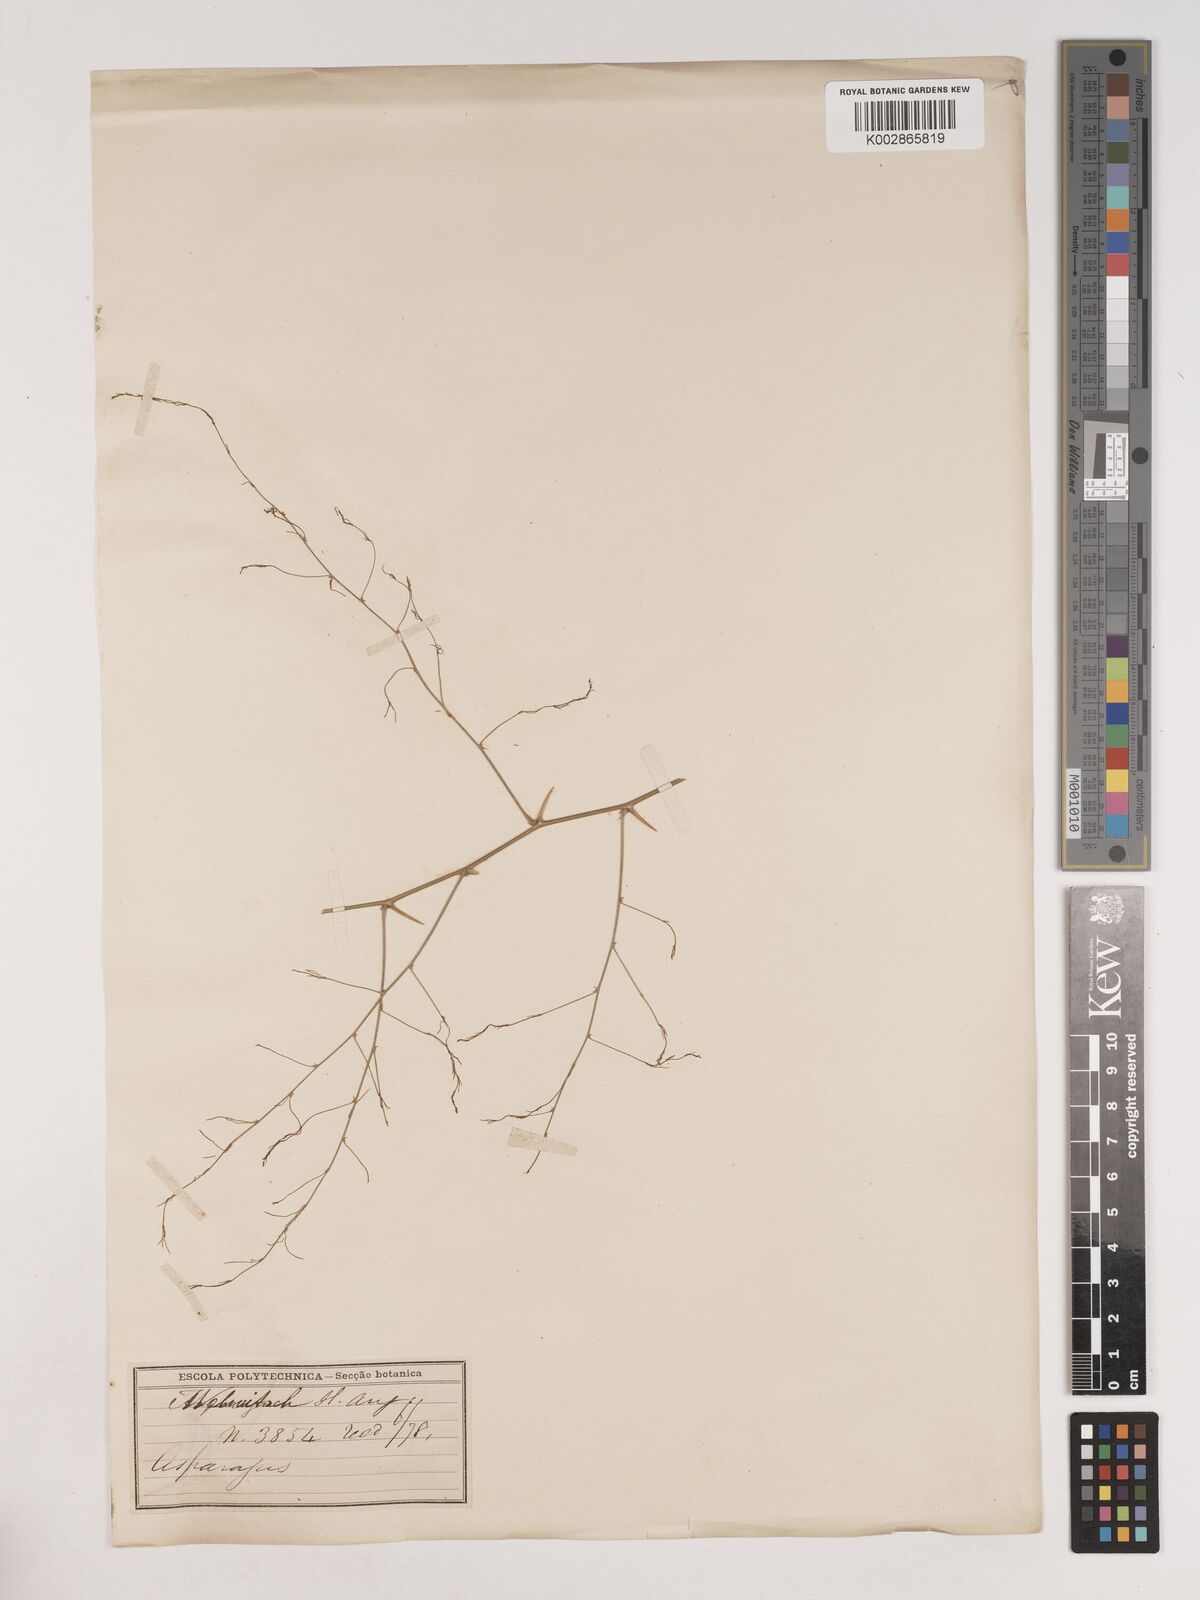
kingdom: Plantae
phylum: Tracheophyta
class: Liliopsida
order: Asparagales
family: Asparagaceae
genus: Asparagus
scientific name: Asparagus drepanophyllus
